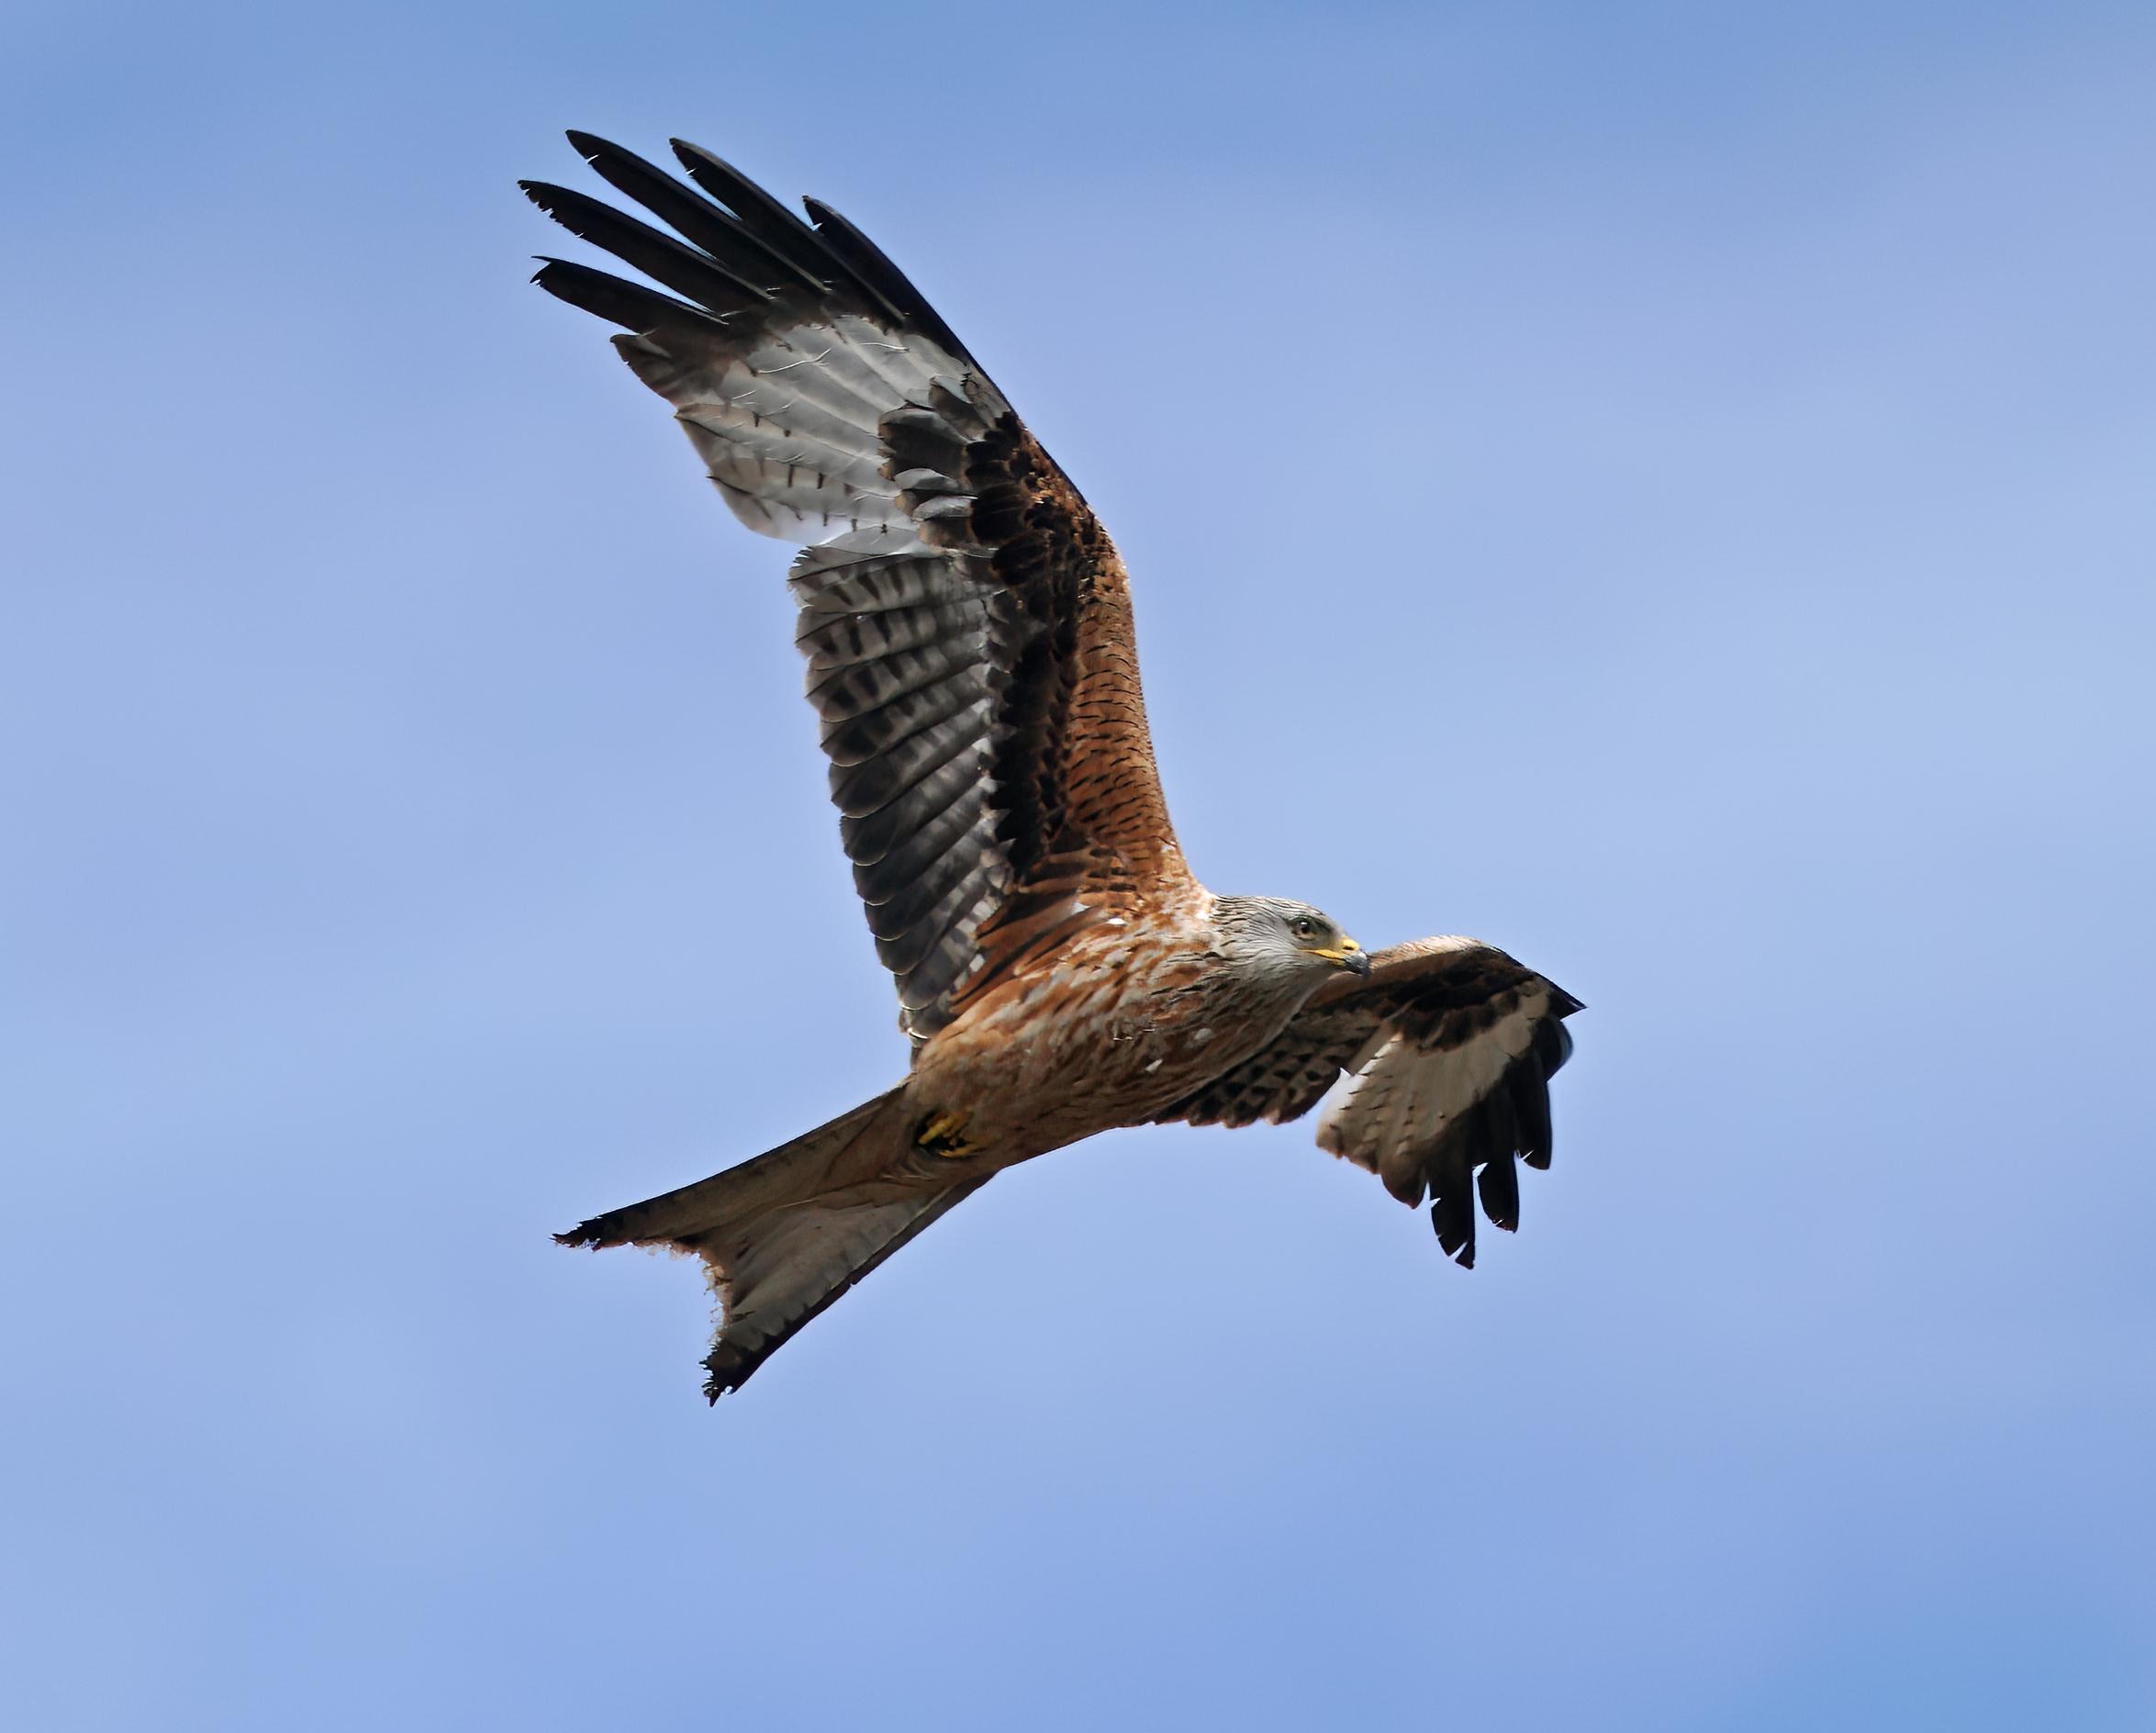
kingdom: Animalia
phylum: Chordata
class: Aves
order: Accipitriformes
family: Accipitridae
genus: Milvus
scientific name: Milvus milvus
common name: Rød glente
